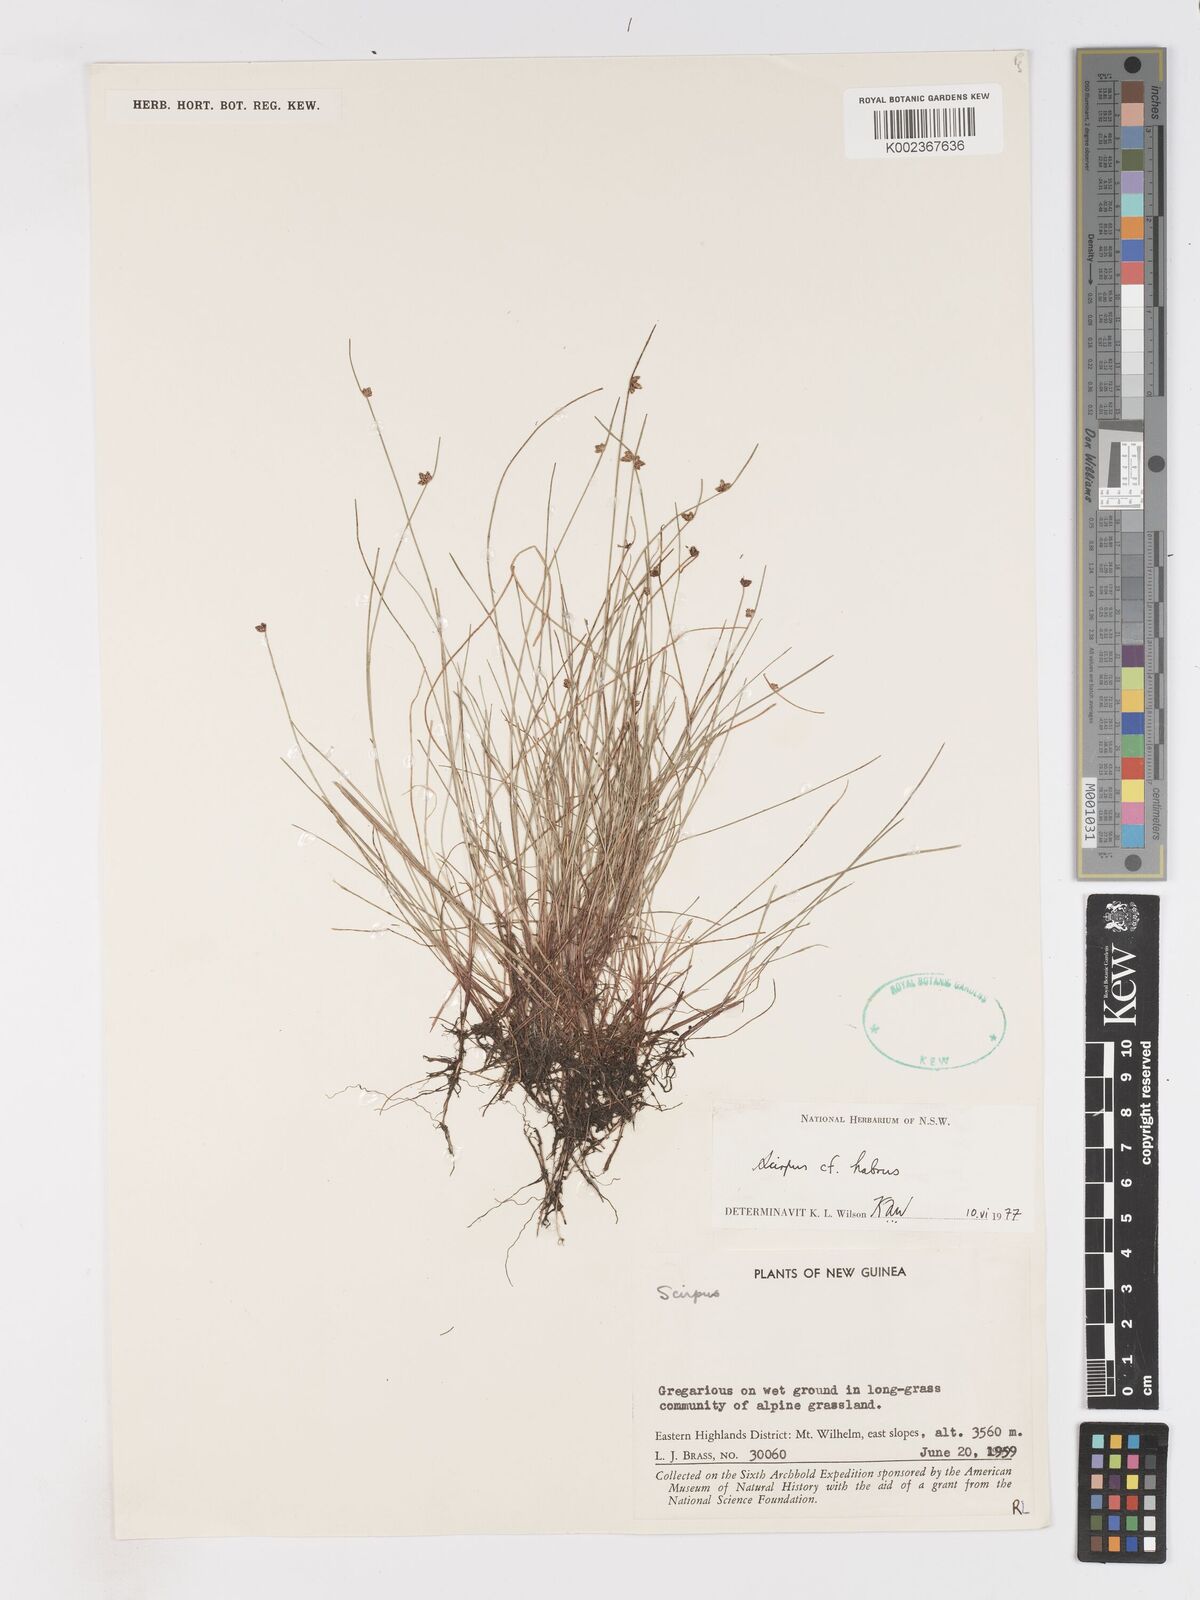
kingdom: Plantae
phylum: Tracheophyta
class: Liliopsida
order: Poales
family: Cyperaceae
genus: Isolepis
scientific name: Isolepis habra
